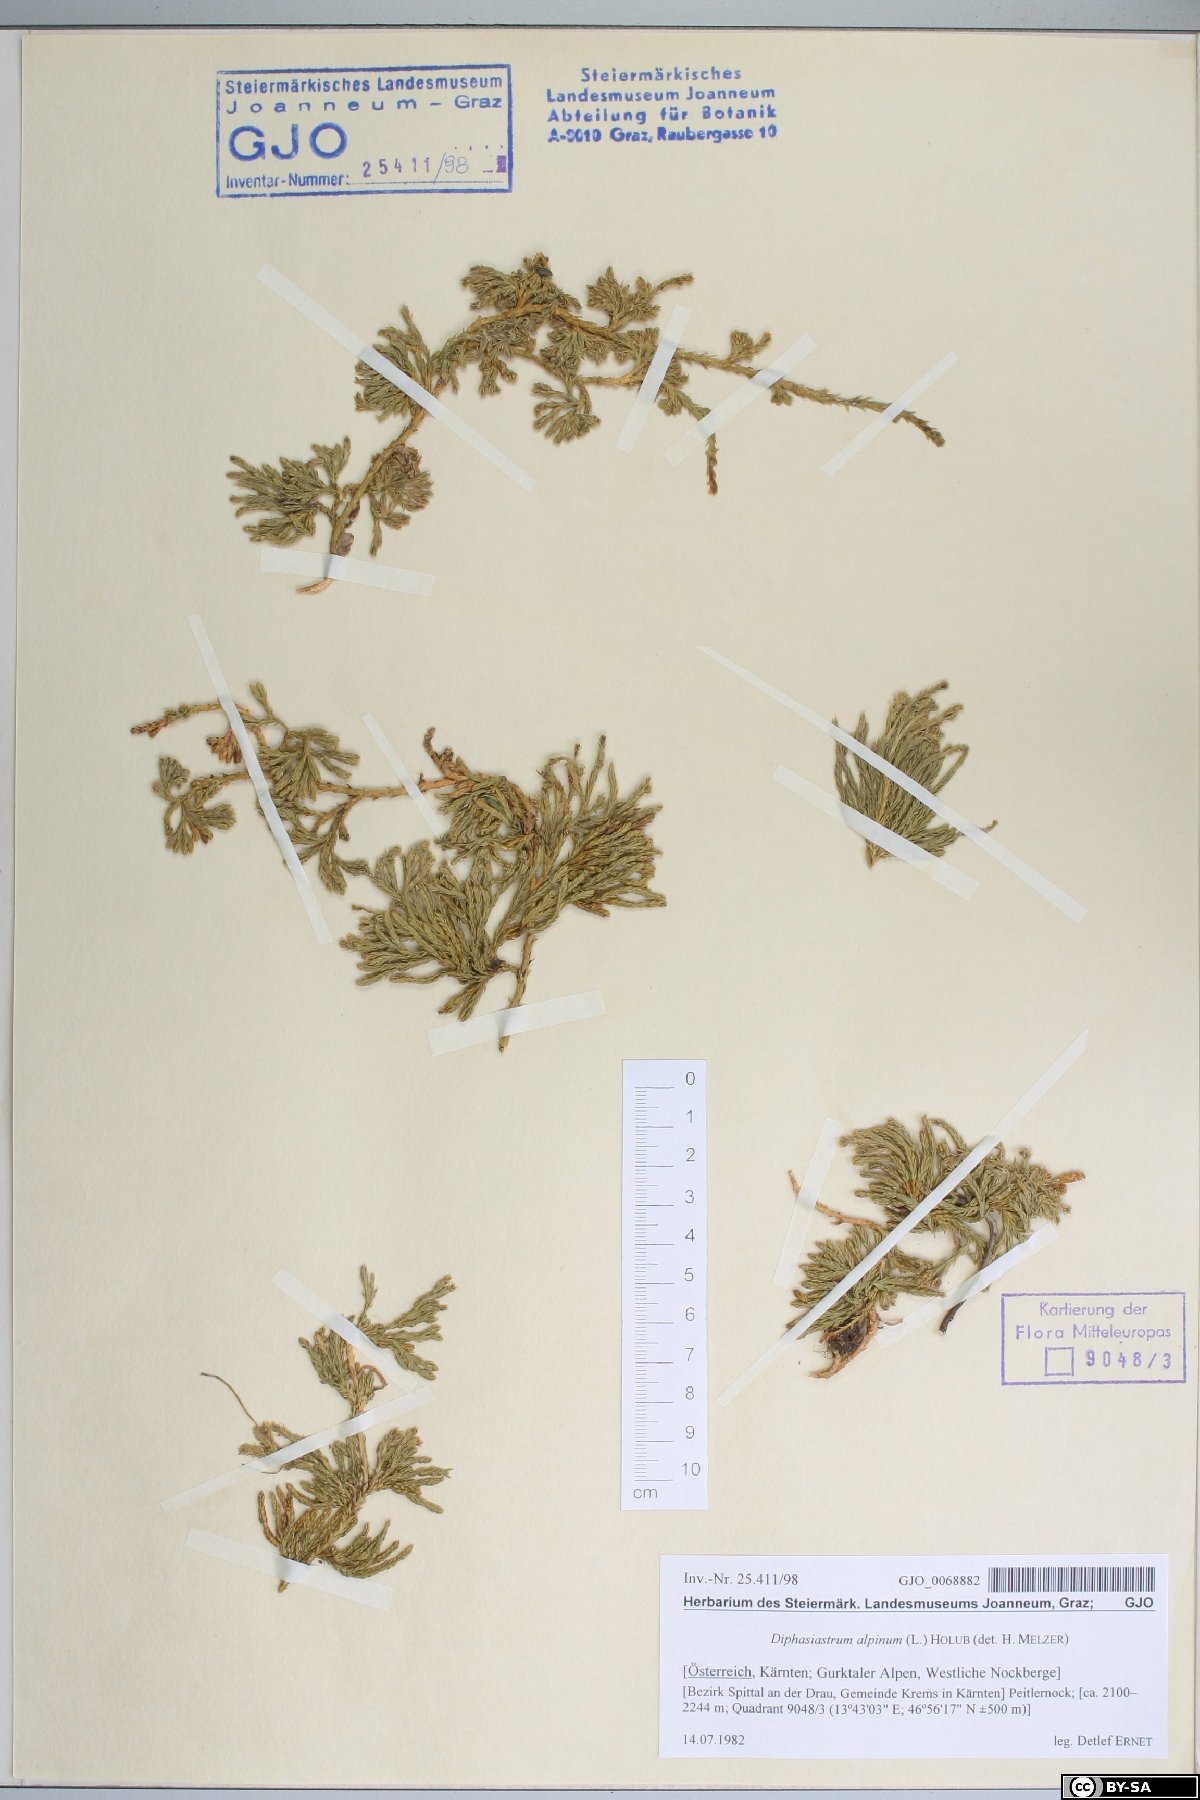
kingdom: Plantae
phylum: Tracheophyta
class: Lycopodiopsida
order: Lycopodiales
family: Lycopodiaceae
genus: Diphasiastrum
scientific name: Diphasiastrum alpinum
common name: Alpine clubmoss
